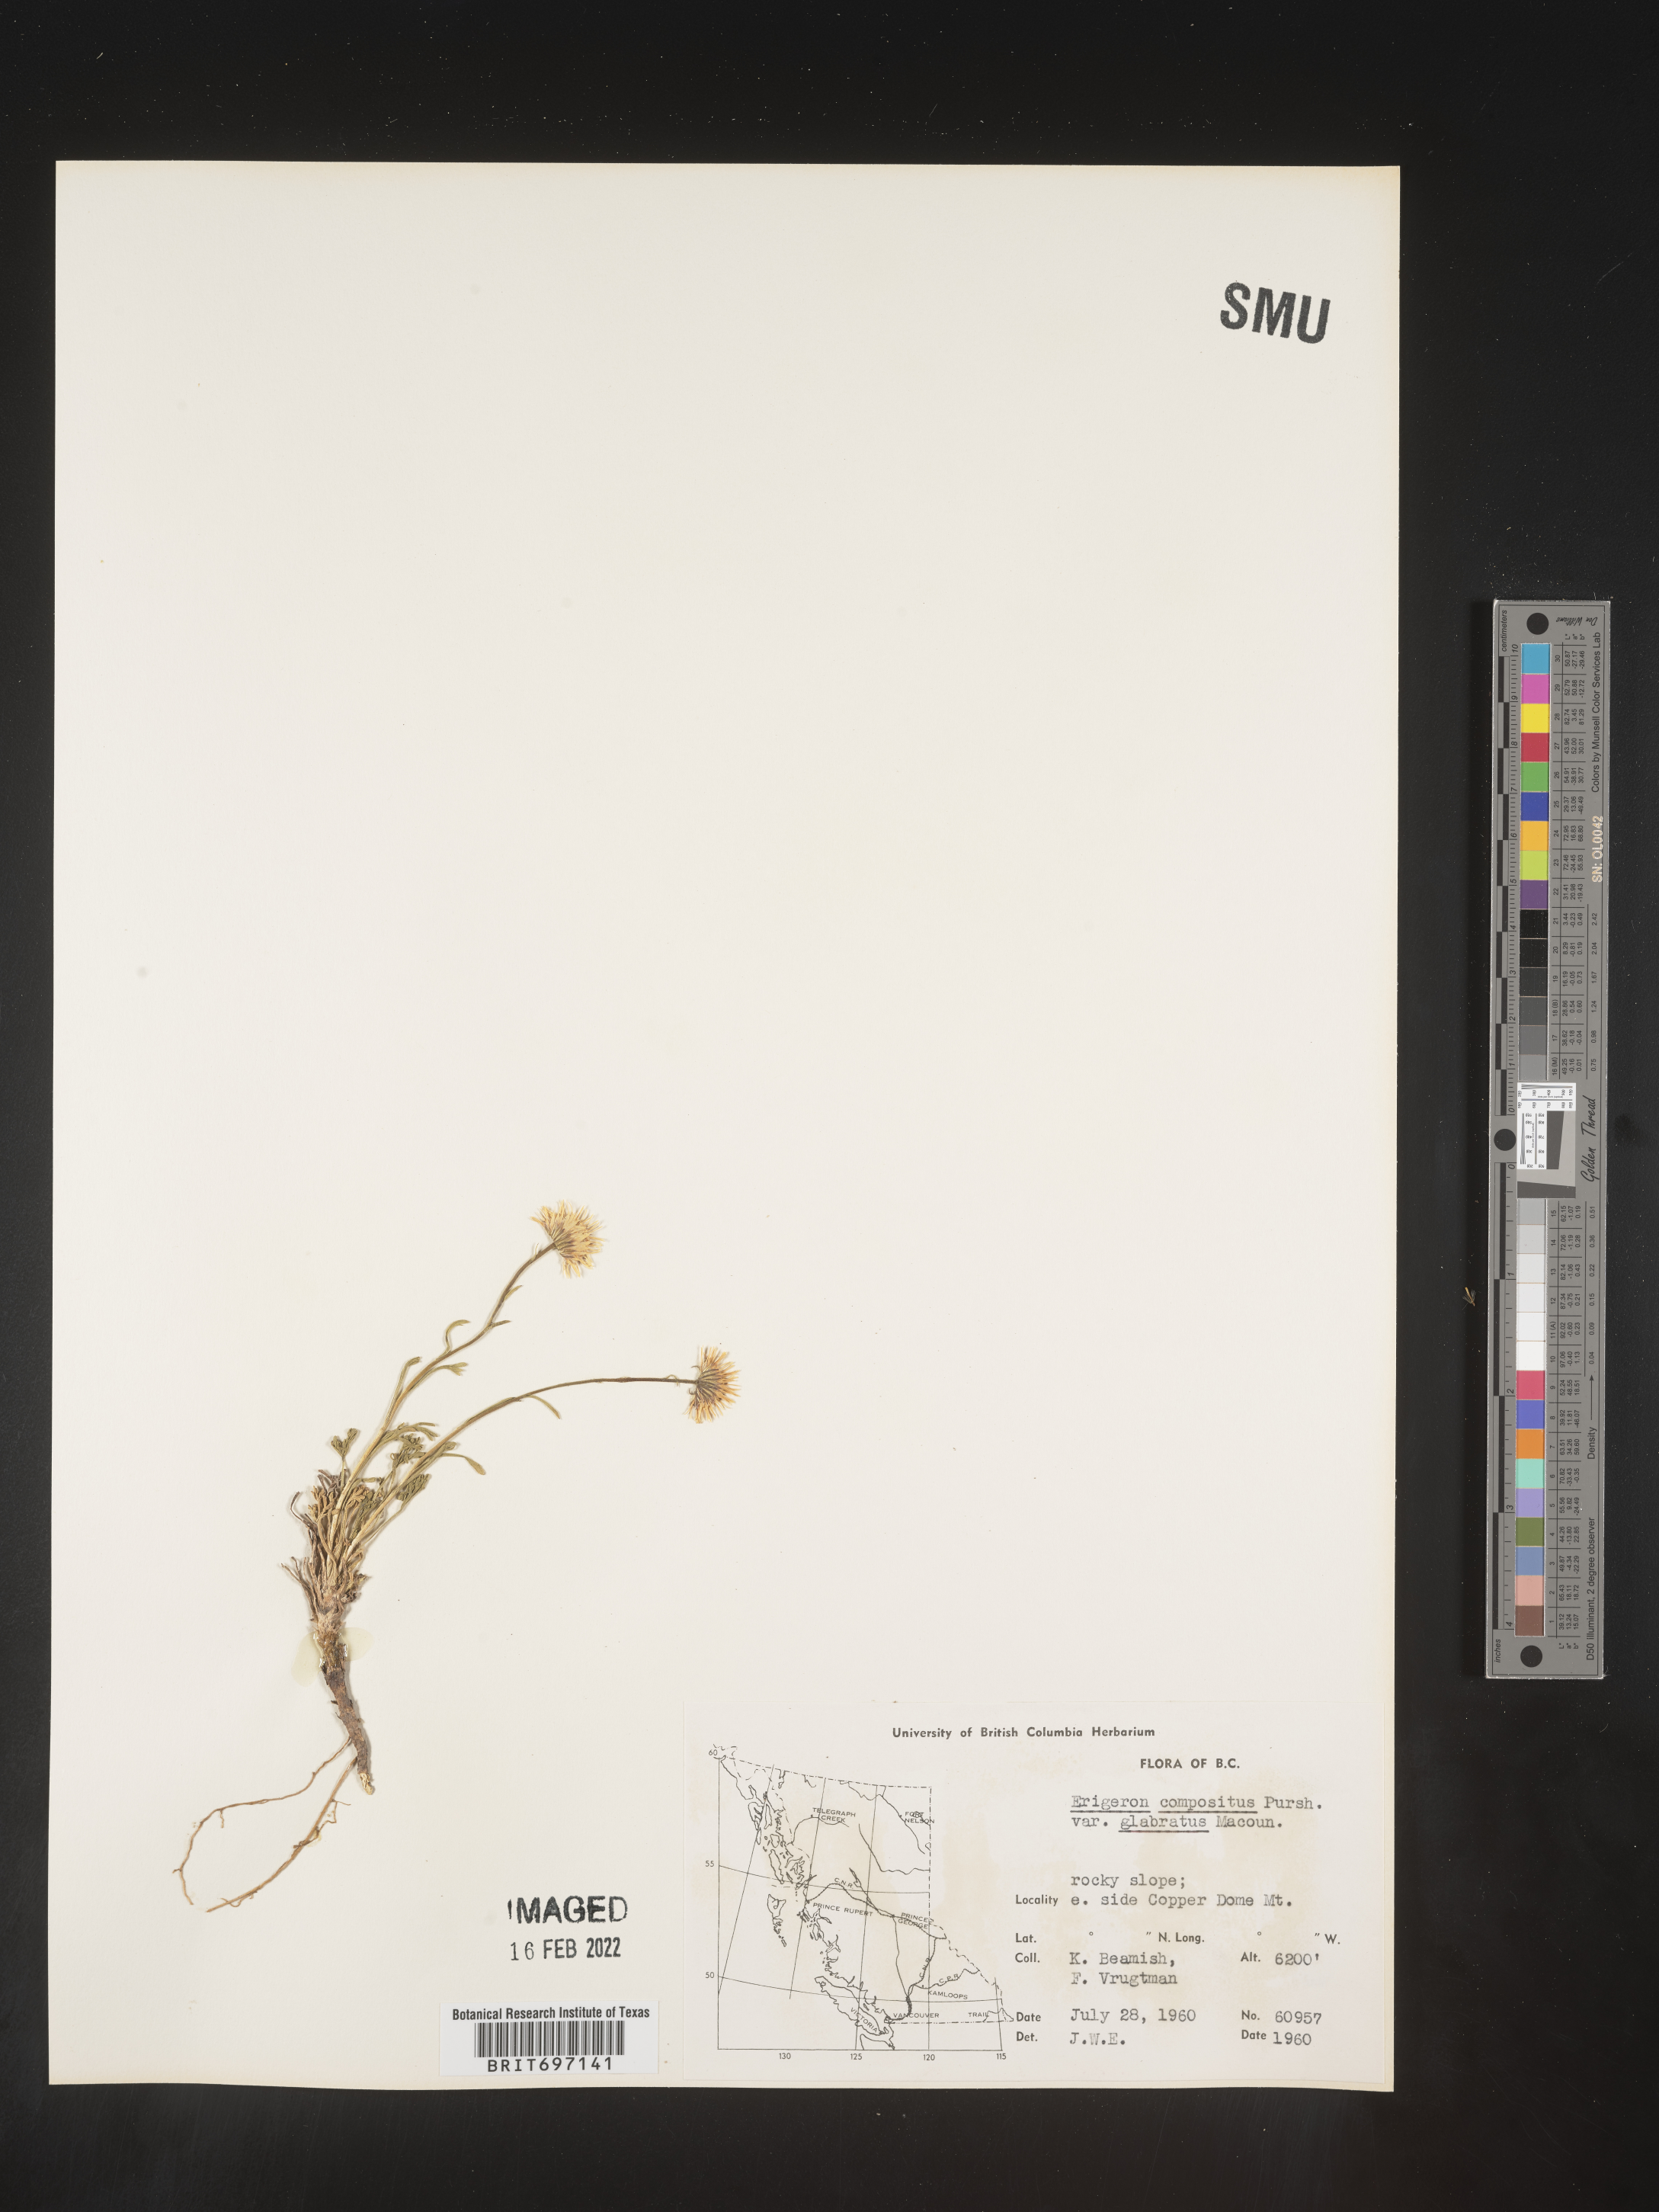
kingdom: Plantae
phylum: Tracheophyta
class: Magnoliopsida
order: Asterales
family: Asteraceae
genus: Erigeron
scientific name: Erigeron compositus
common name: Dwarf mountain fleabane
